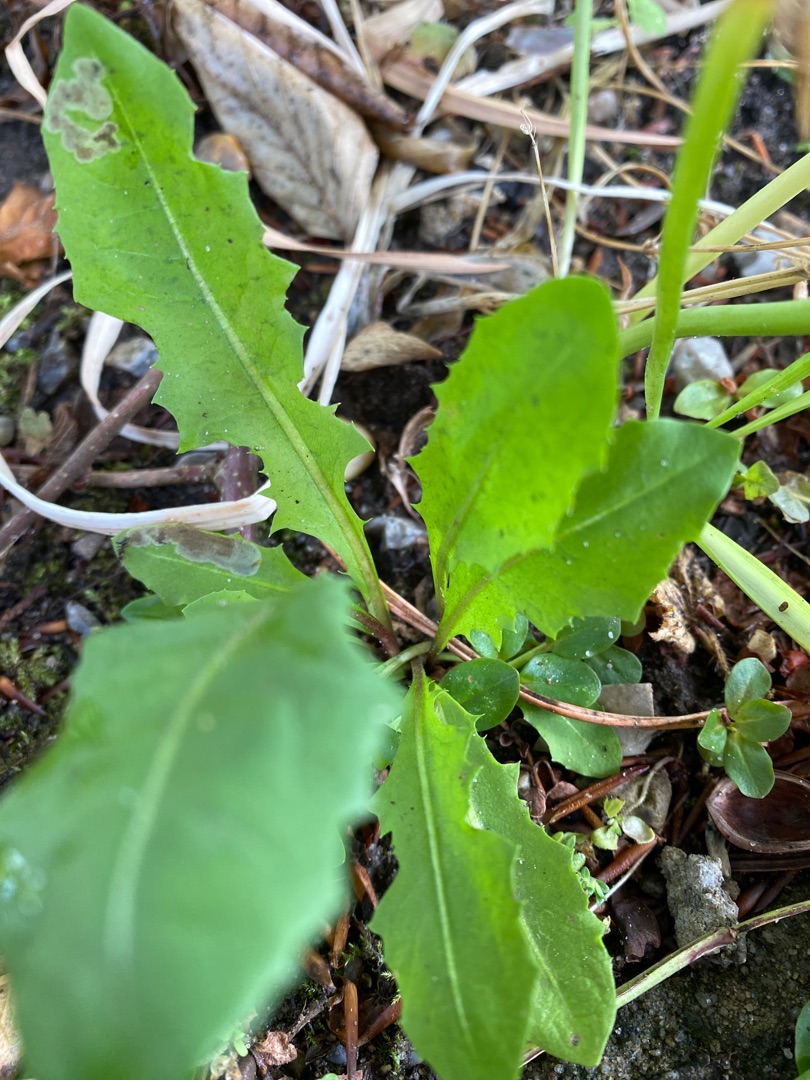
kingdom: Plantae
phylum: Tracheophyta
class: Magnoliopsida
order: Asterales
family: Asteraceae
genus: Taraxacum
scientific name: Taraxacum
